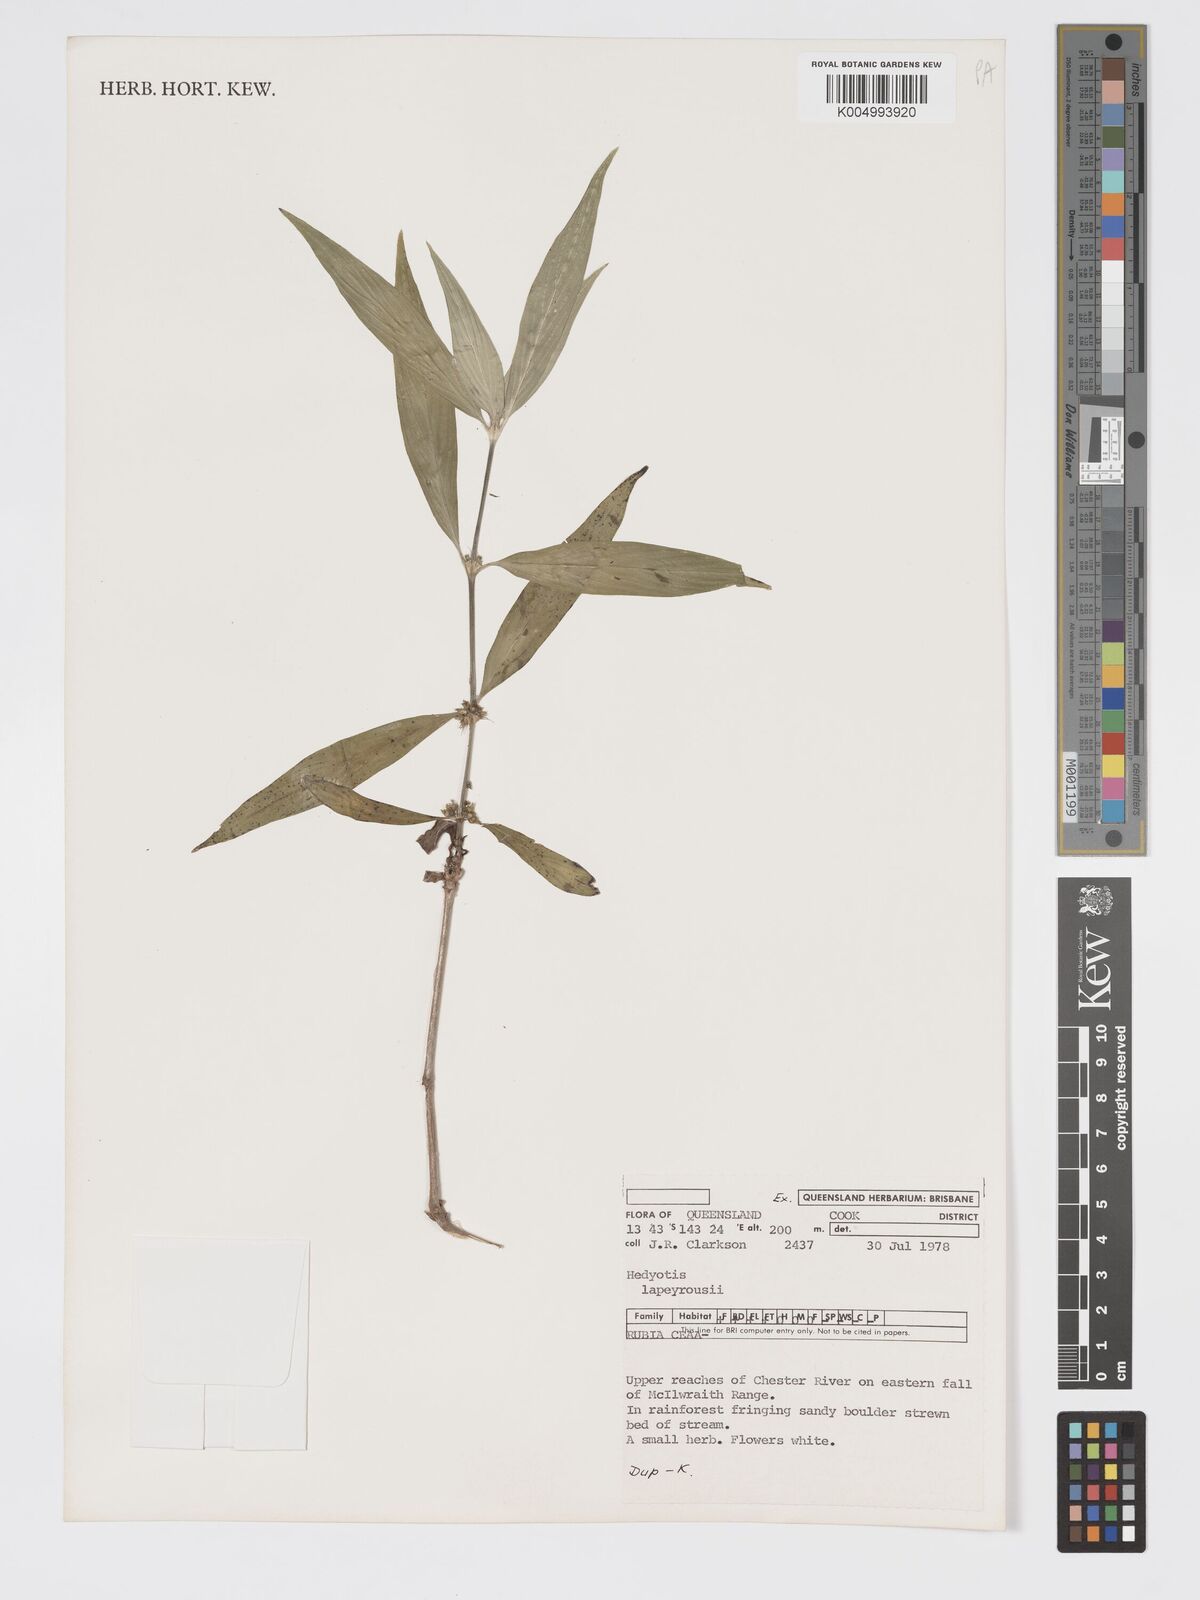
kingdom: Plantae
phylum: Tracheophyta
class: Magnoliopsida
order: Gentianales
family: Rubiaceae
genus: Exallage
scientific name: Exallage lapeyrousei
